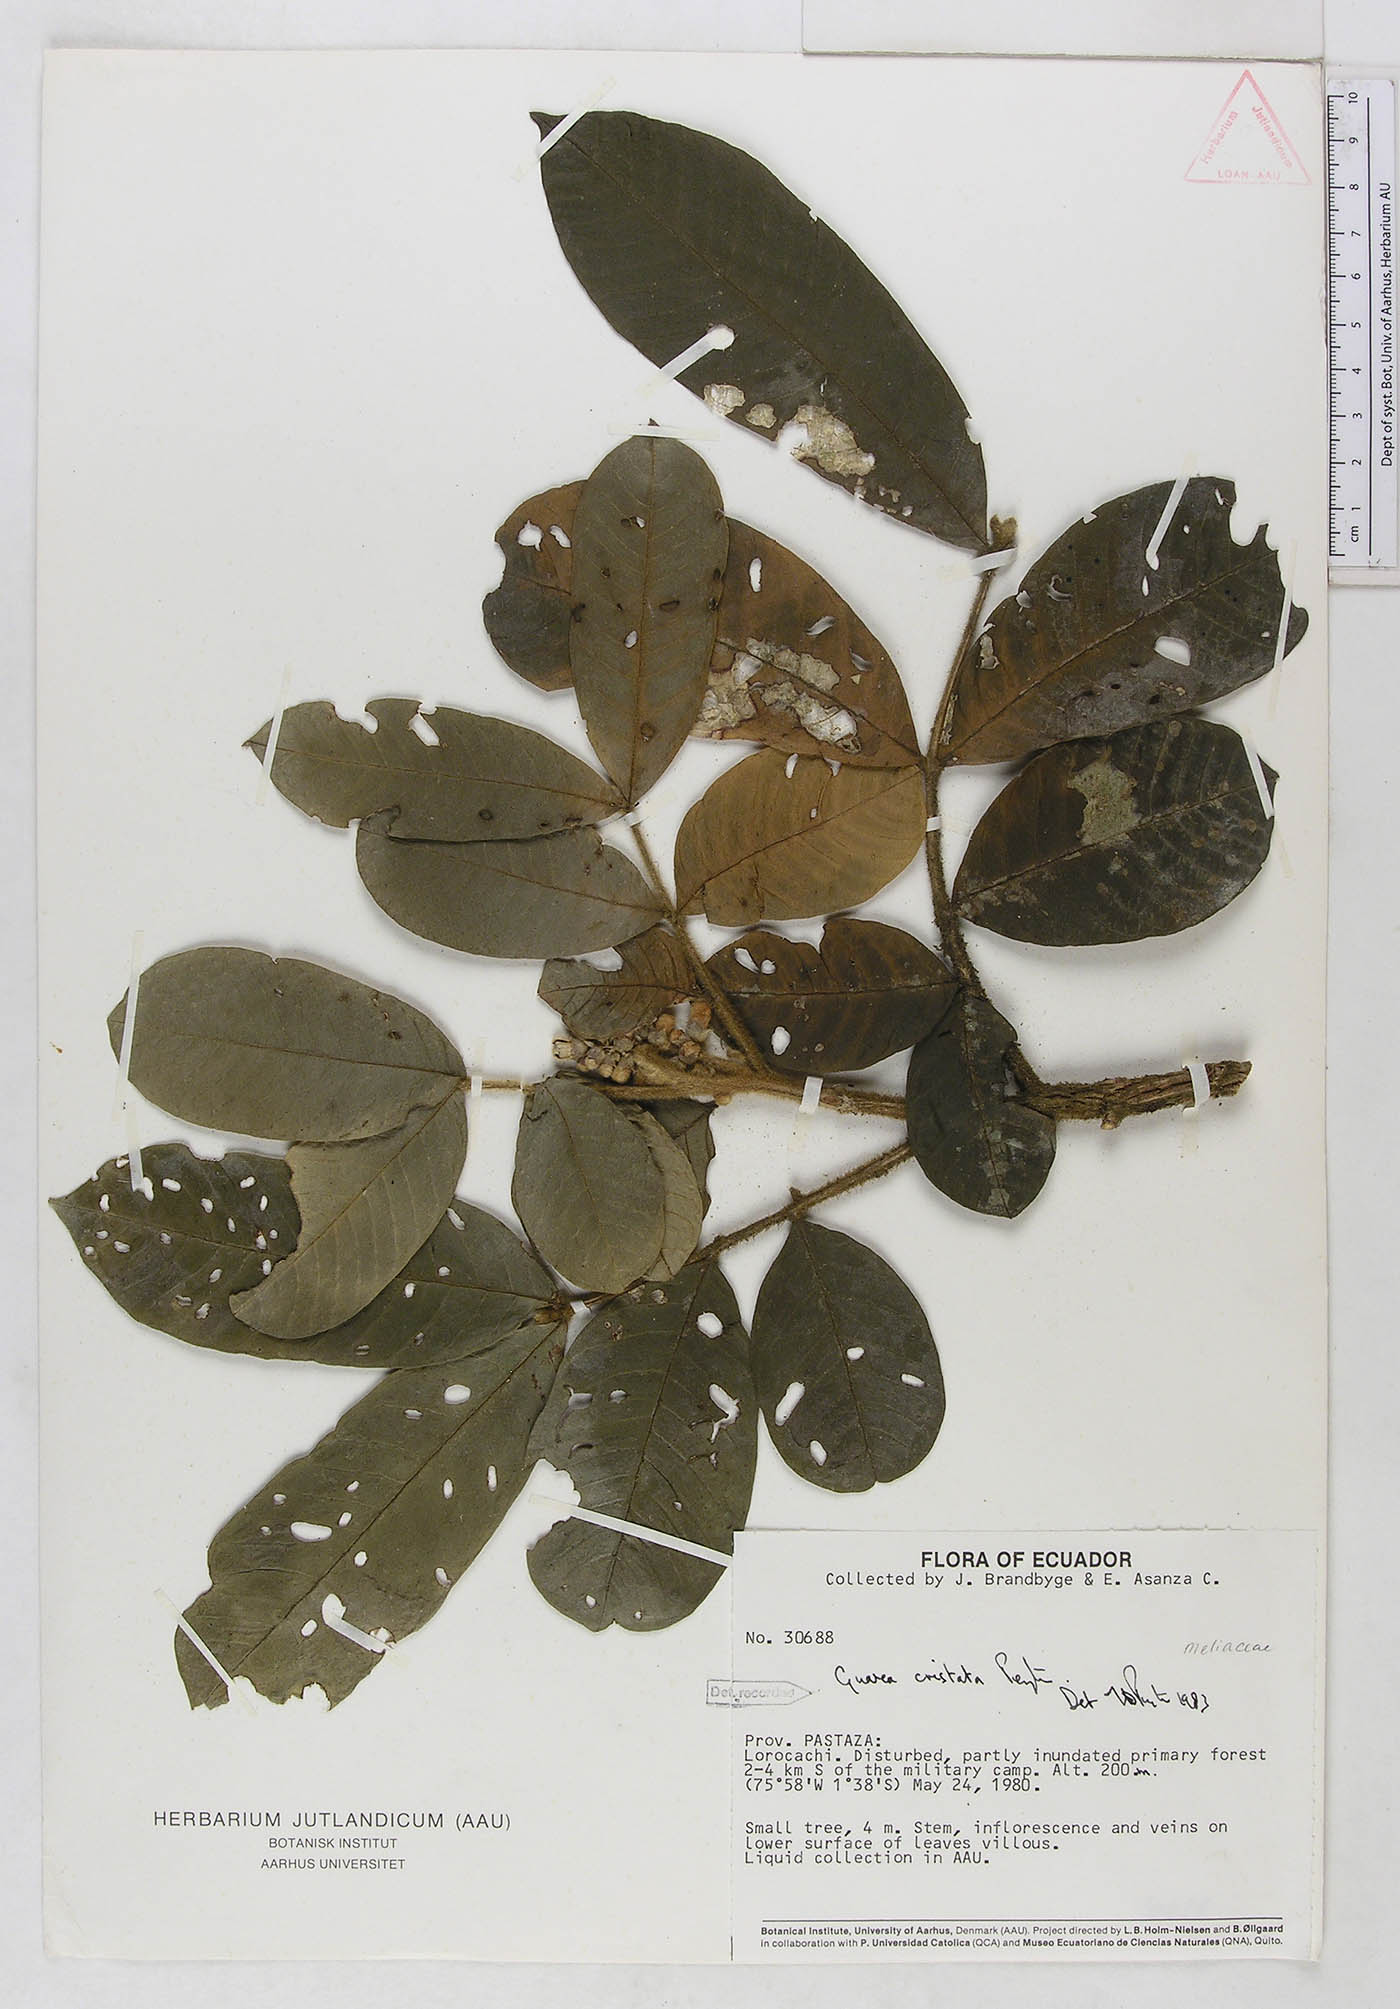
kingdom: Plantae
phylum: Tracheophyta
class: Magnoliopsida
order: Sapindales
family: Meliaceae
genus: Guarea
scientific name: Guarea cristata
